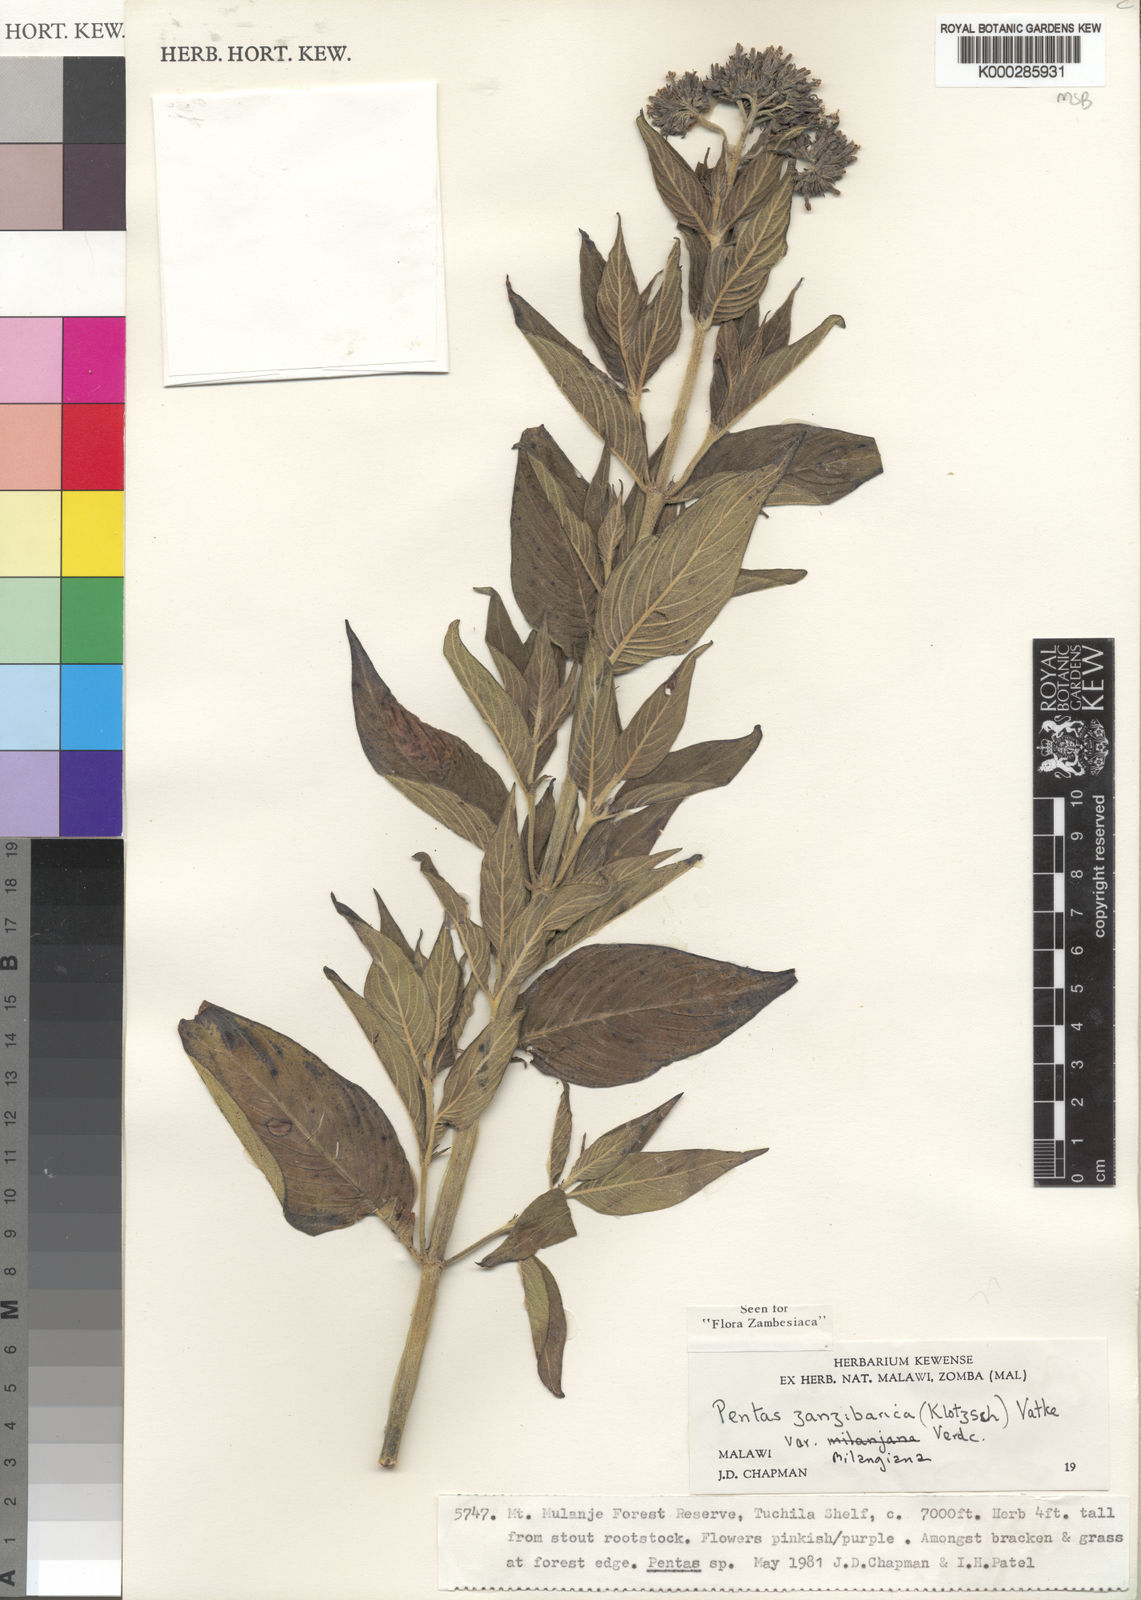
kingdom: Plantae
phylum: Tracheophyta
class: Magnoliopsida
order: Gentianales
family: Rubiaceae
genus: Pentas
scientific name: Pentas zanzibarica
